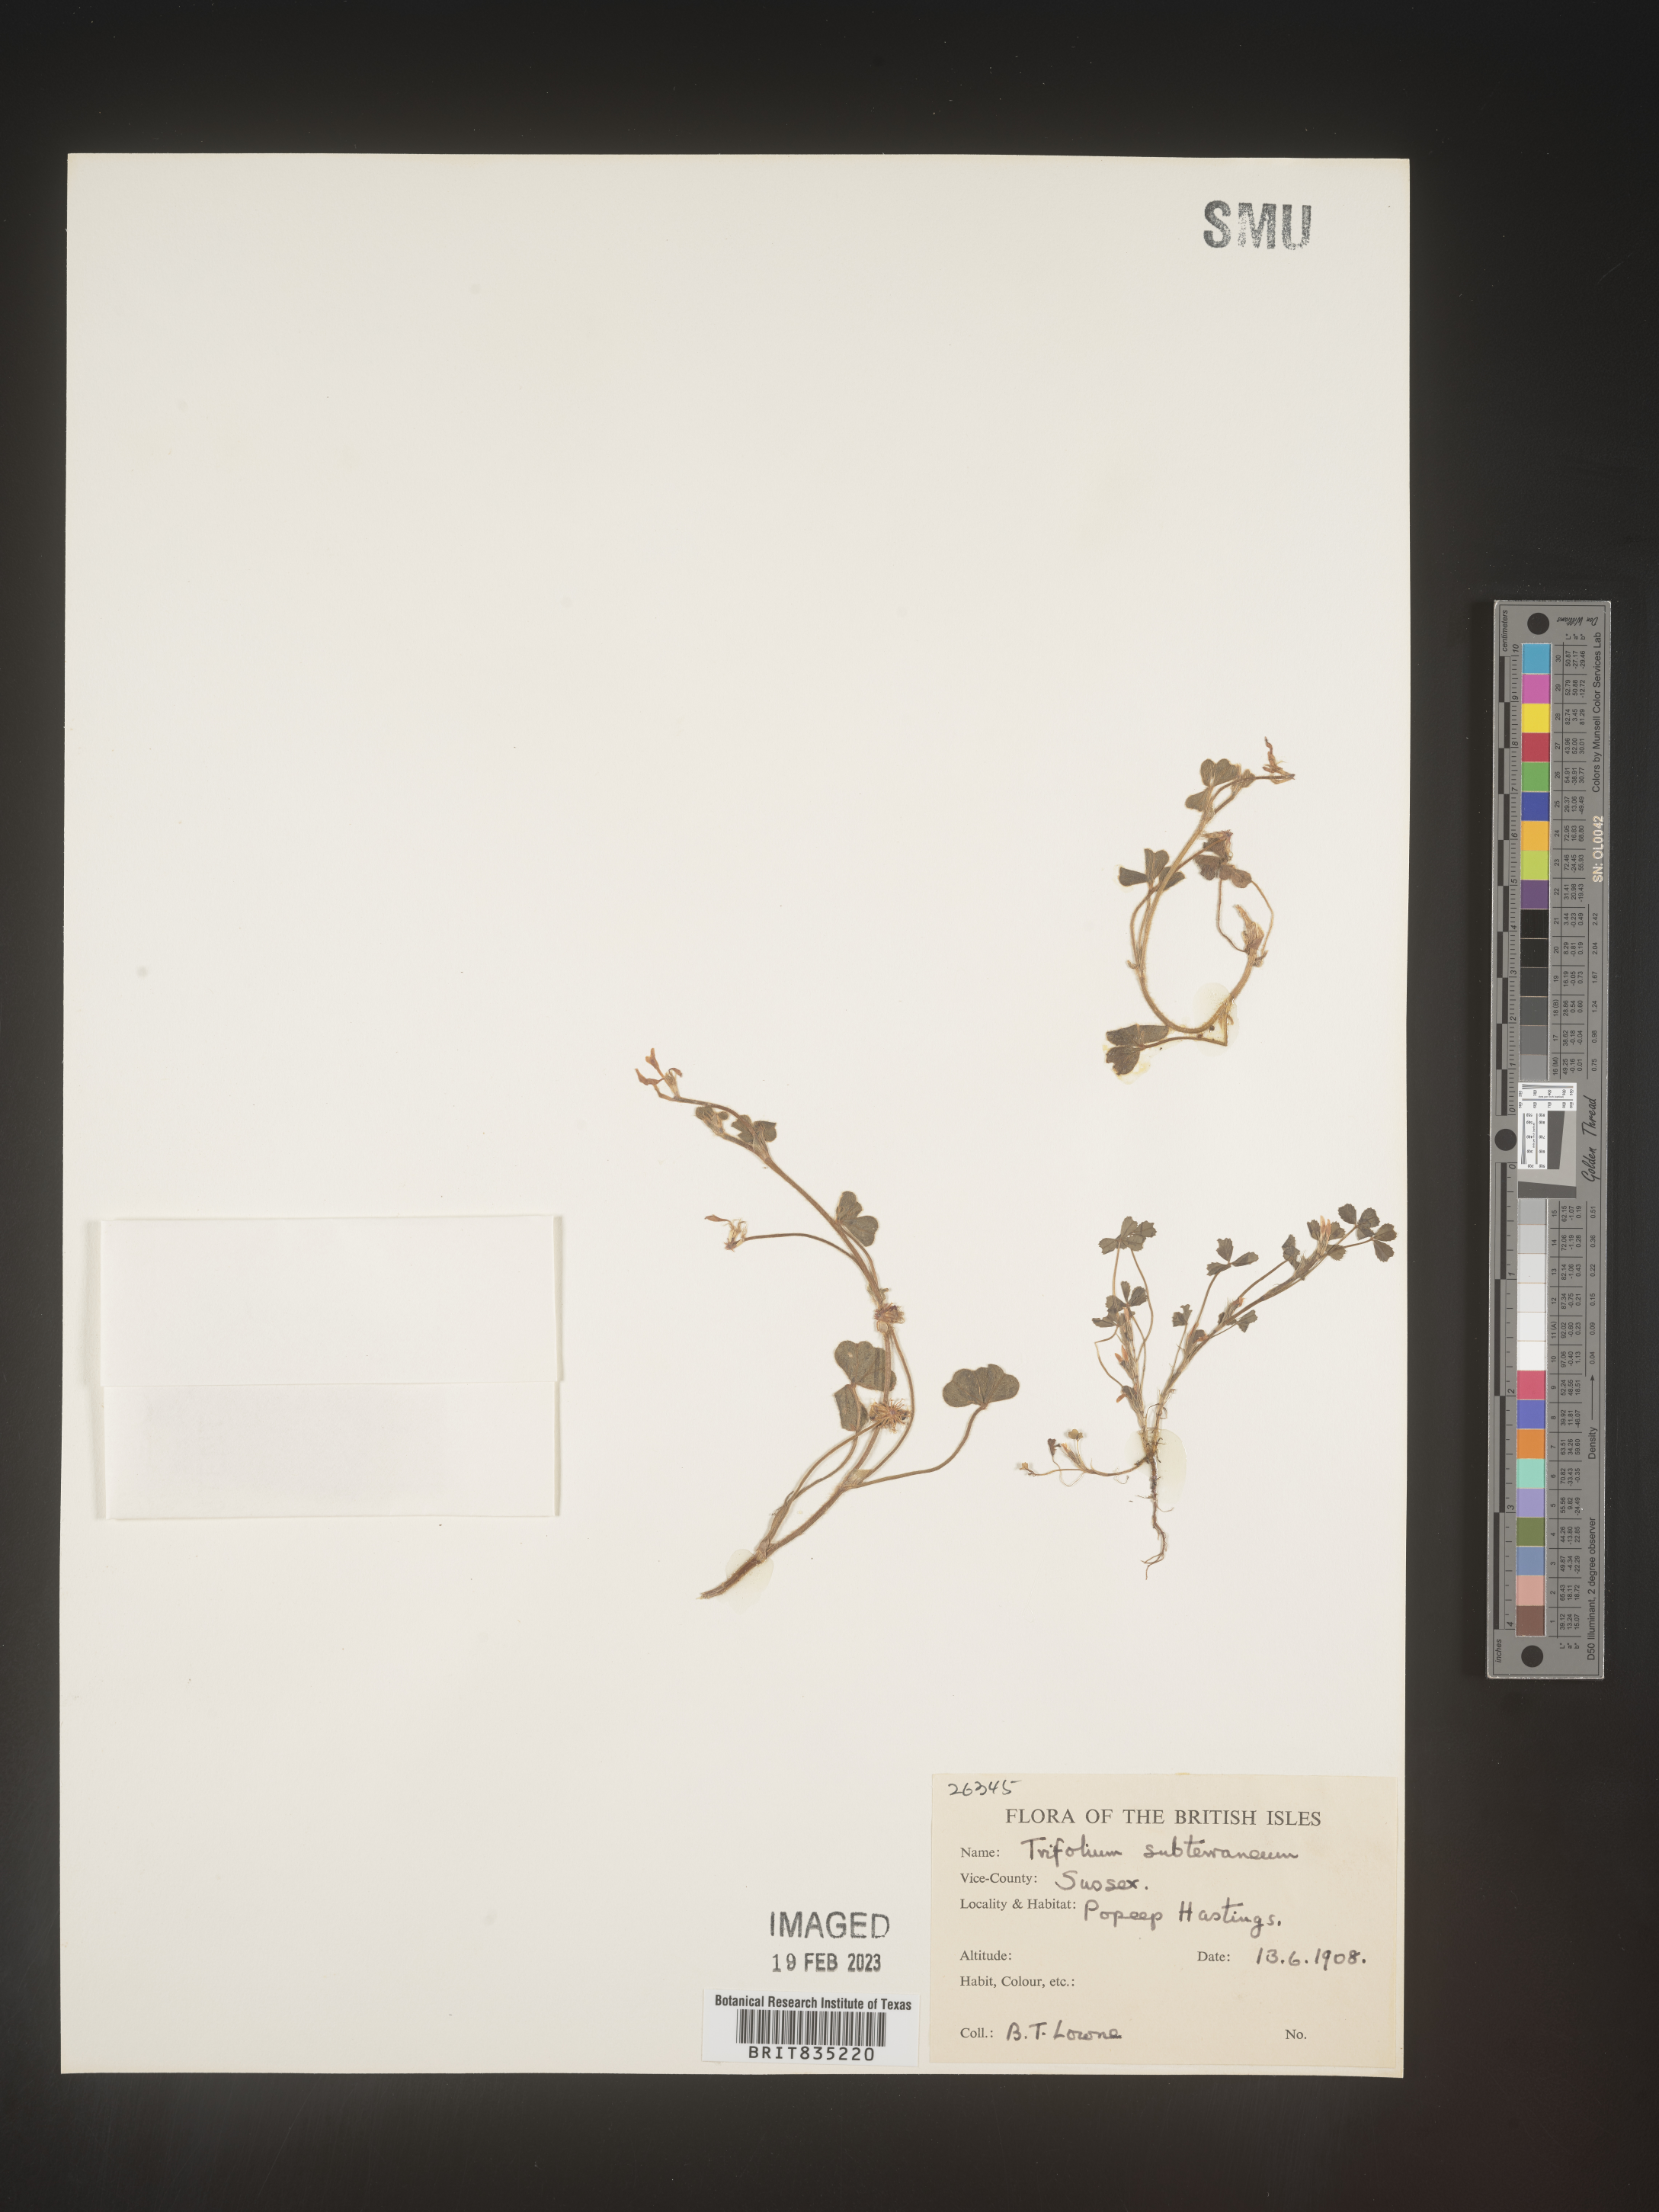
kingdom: Plantae
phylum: Tracheophyta
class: Magnoliopsida
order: Fabales
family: Fabaceae
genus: Trifolium
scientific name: Trifolium
